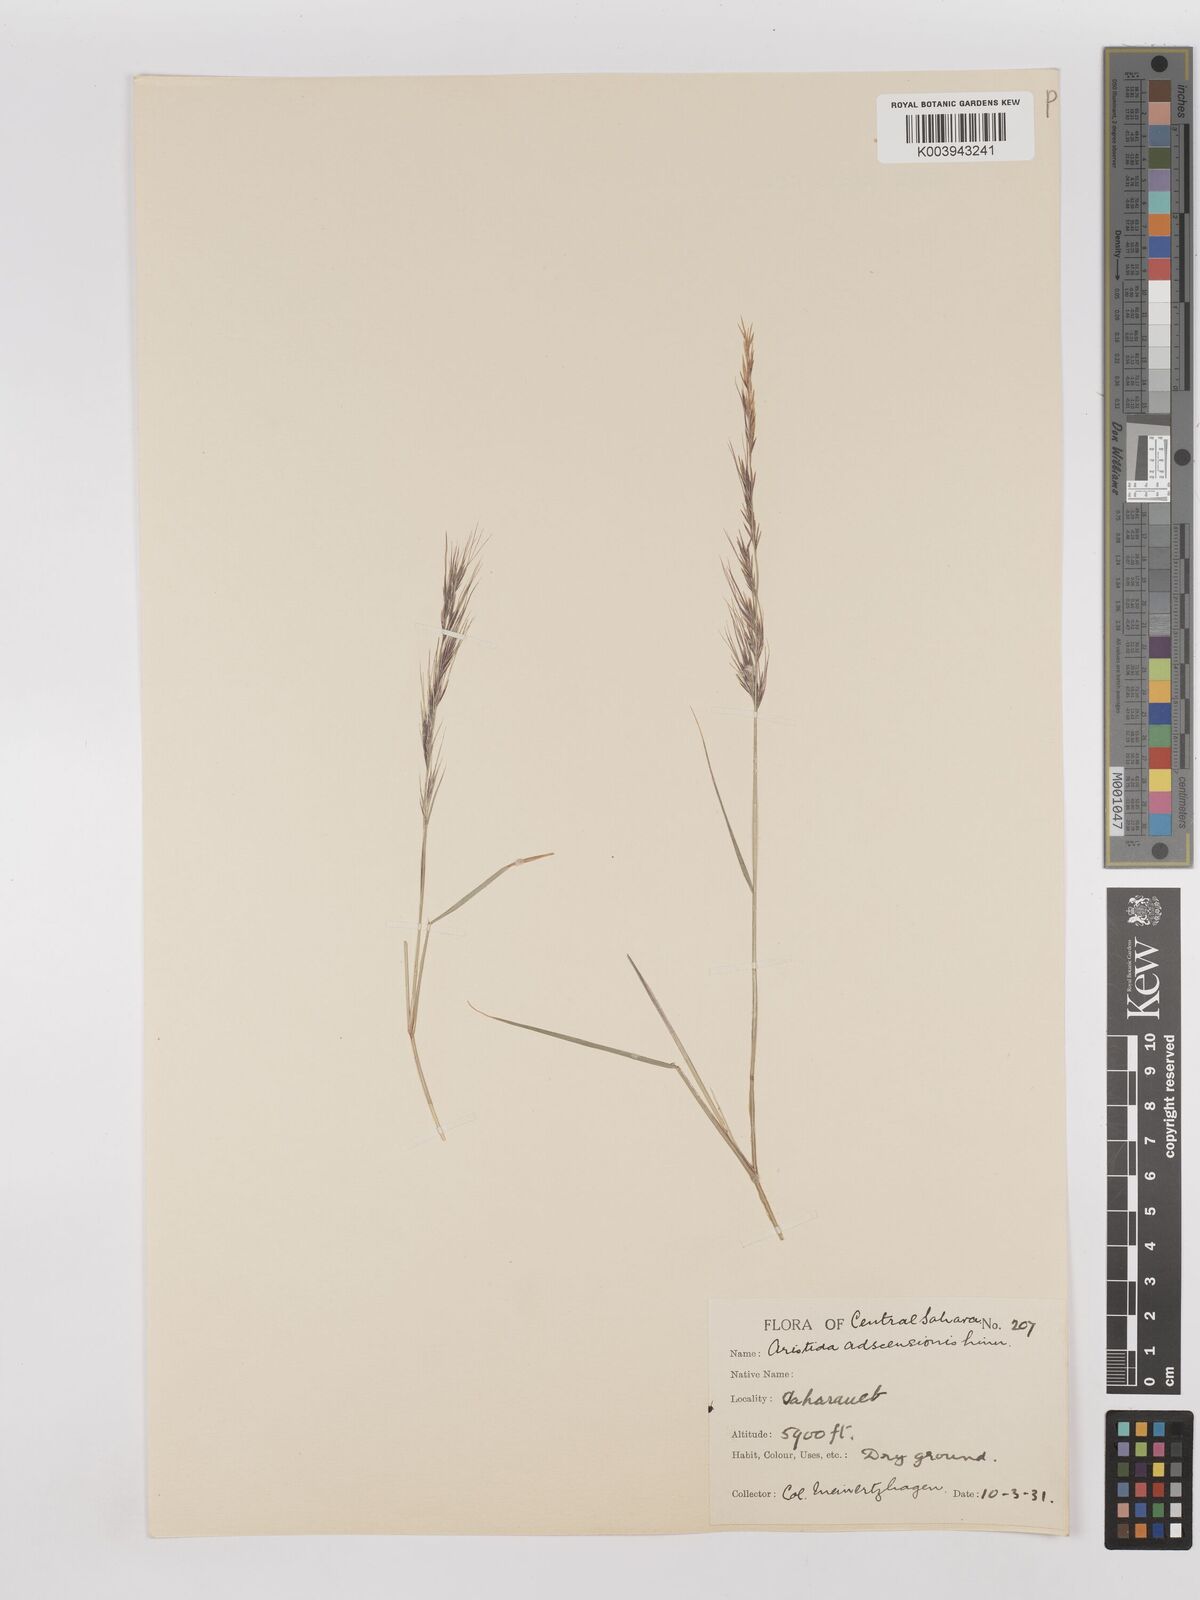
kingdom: Plantae
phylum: Tracheophyta
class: Liliopsida
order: Poales
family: Poaceae
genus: Aristida
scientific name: Aristida adscensionis
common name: Sixweeks threeawn
